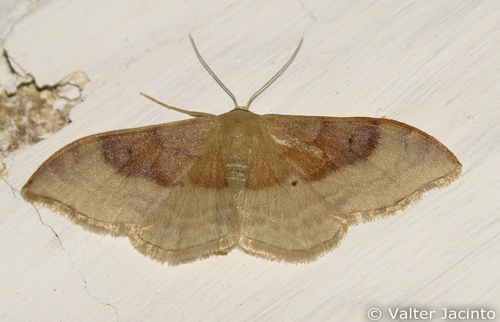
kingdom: Animalia
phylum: Arthropoda
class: Insecta
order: Lepidoptera
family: Geometridae
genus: Idaea
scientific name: Idaea degeneraria
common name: Portland ribbon wave
